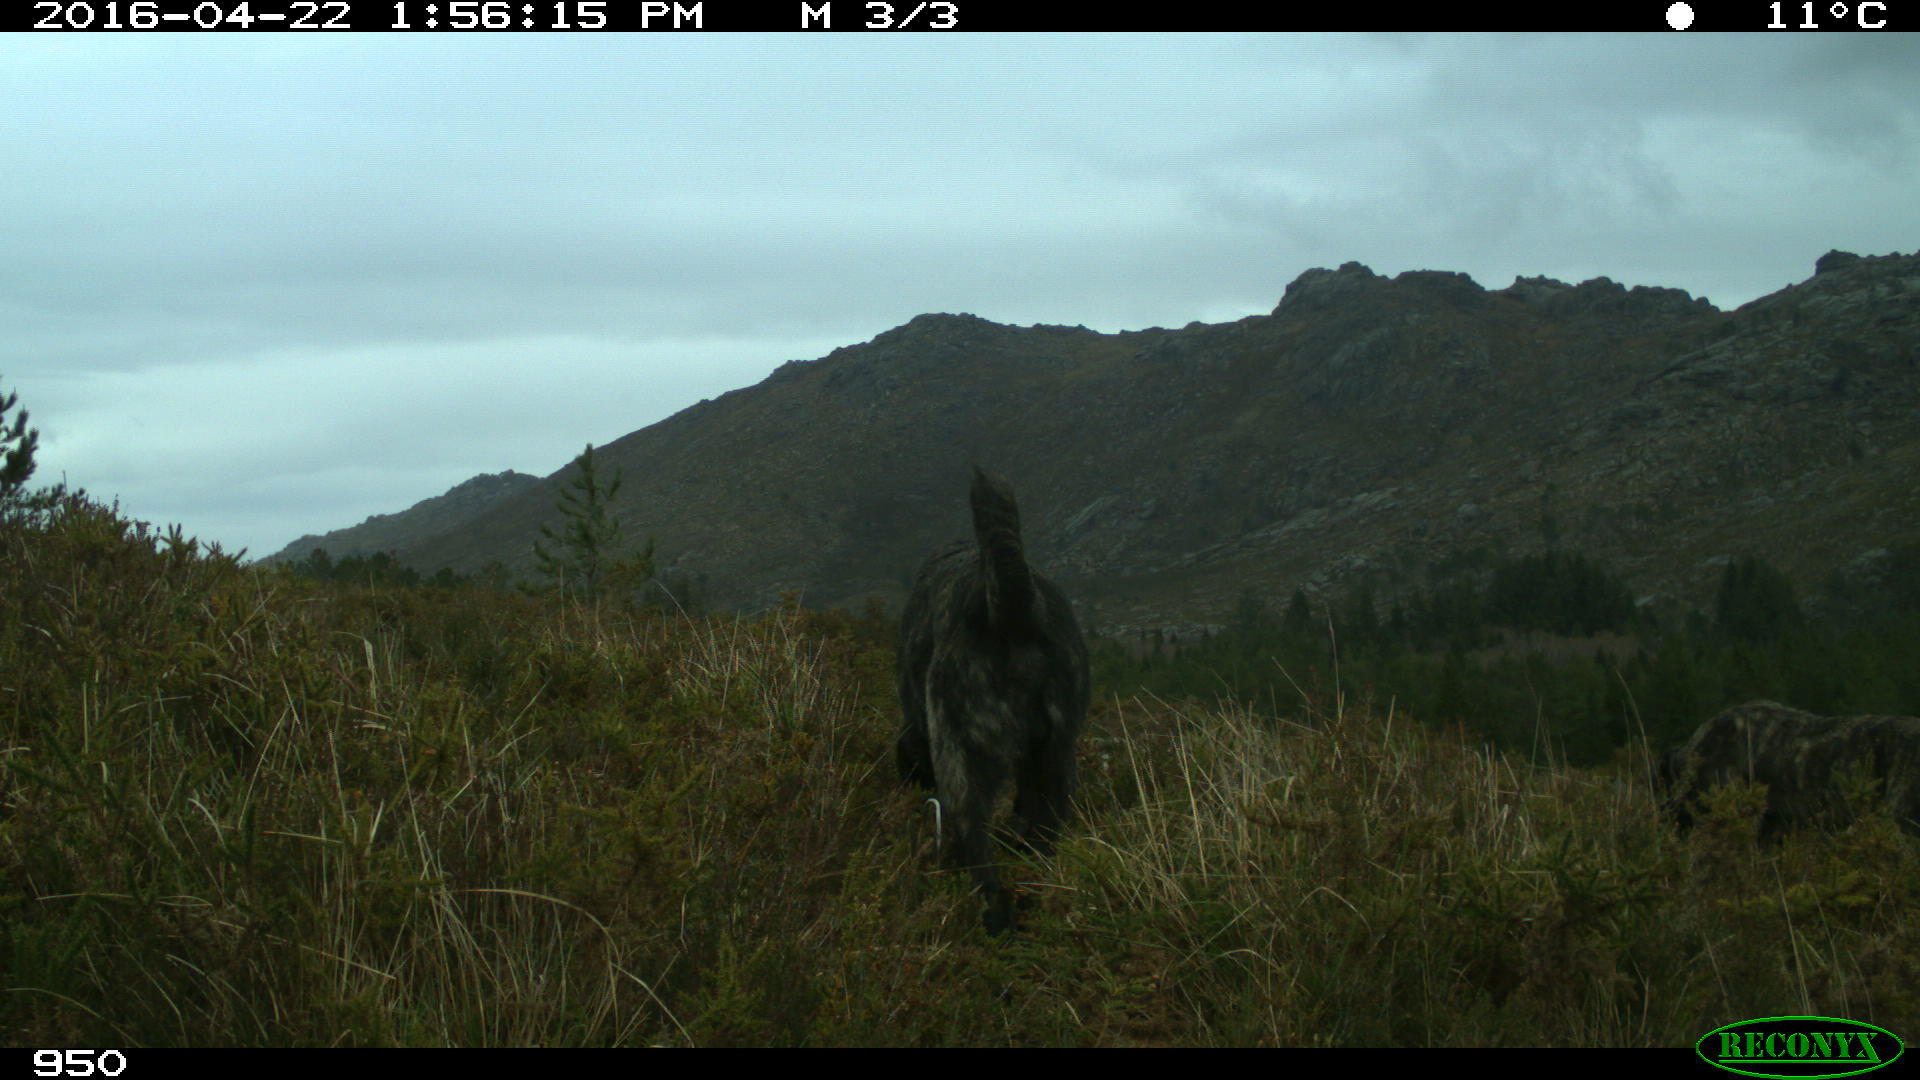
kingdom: Animalia
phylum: Chordata
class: Mammalia
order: Carnivora
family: Canidae
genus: Canis
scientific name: Canis lupus
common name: Gray wolf
